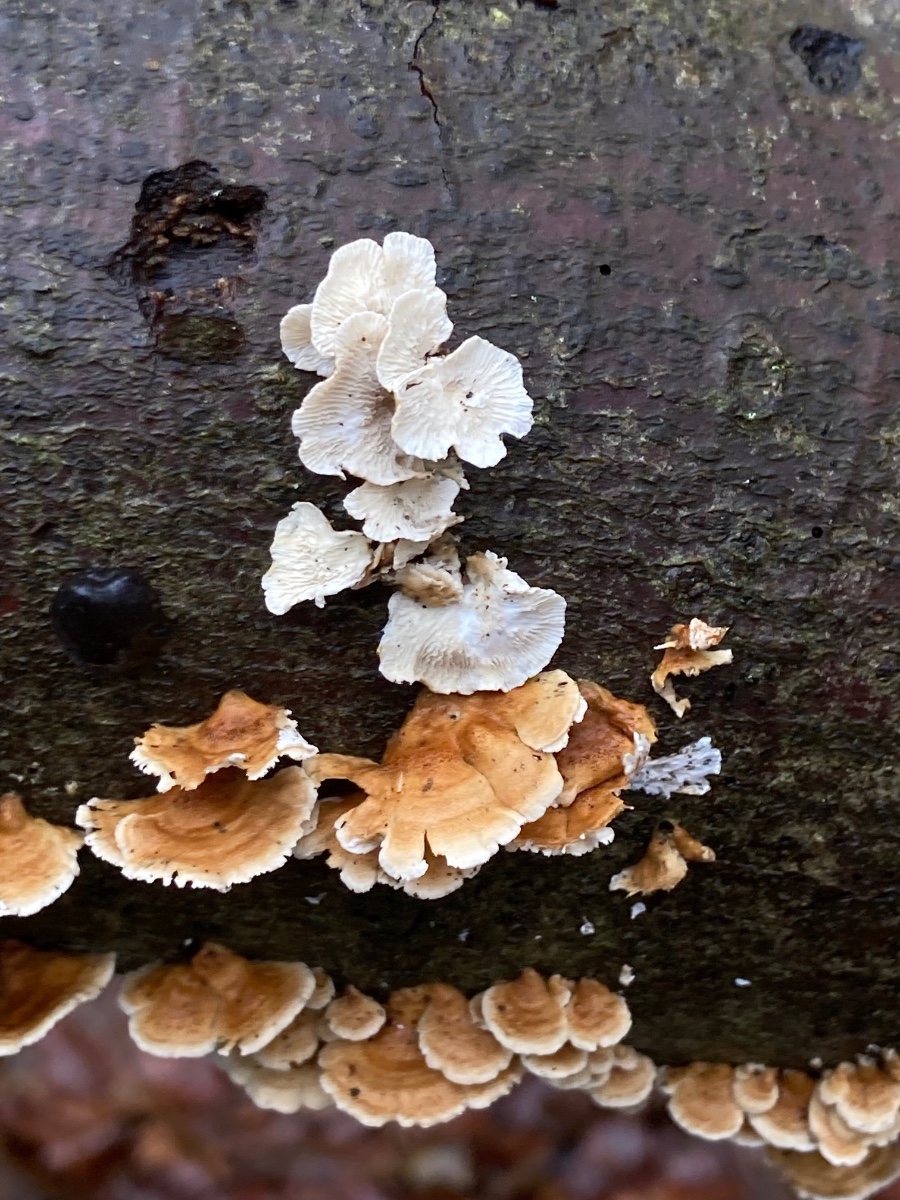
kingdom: Fungi
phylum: Basidiomycota
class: Agaricomycetes
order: Amylocorticiales
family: Amylocorticiaceae
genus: Plicaturopsis
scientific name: Plicaturopsis crispa
